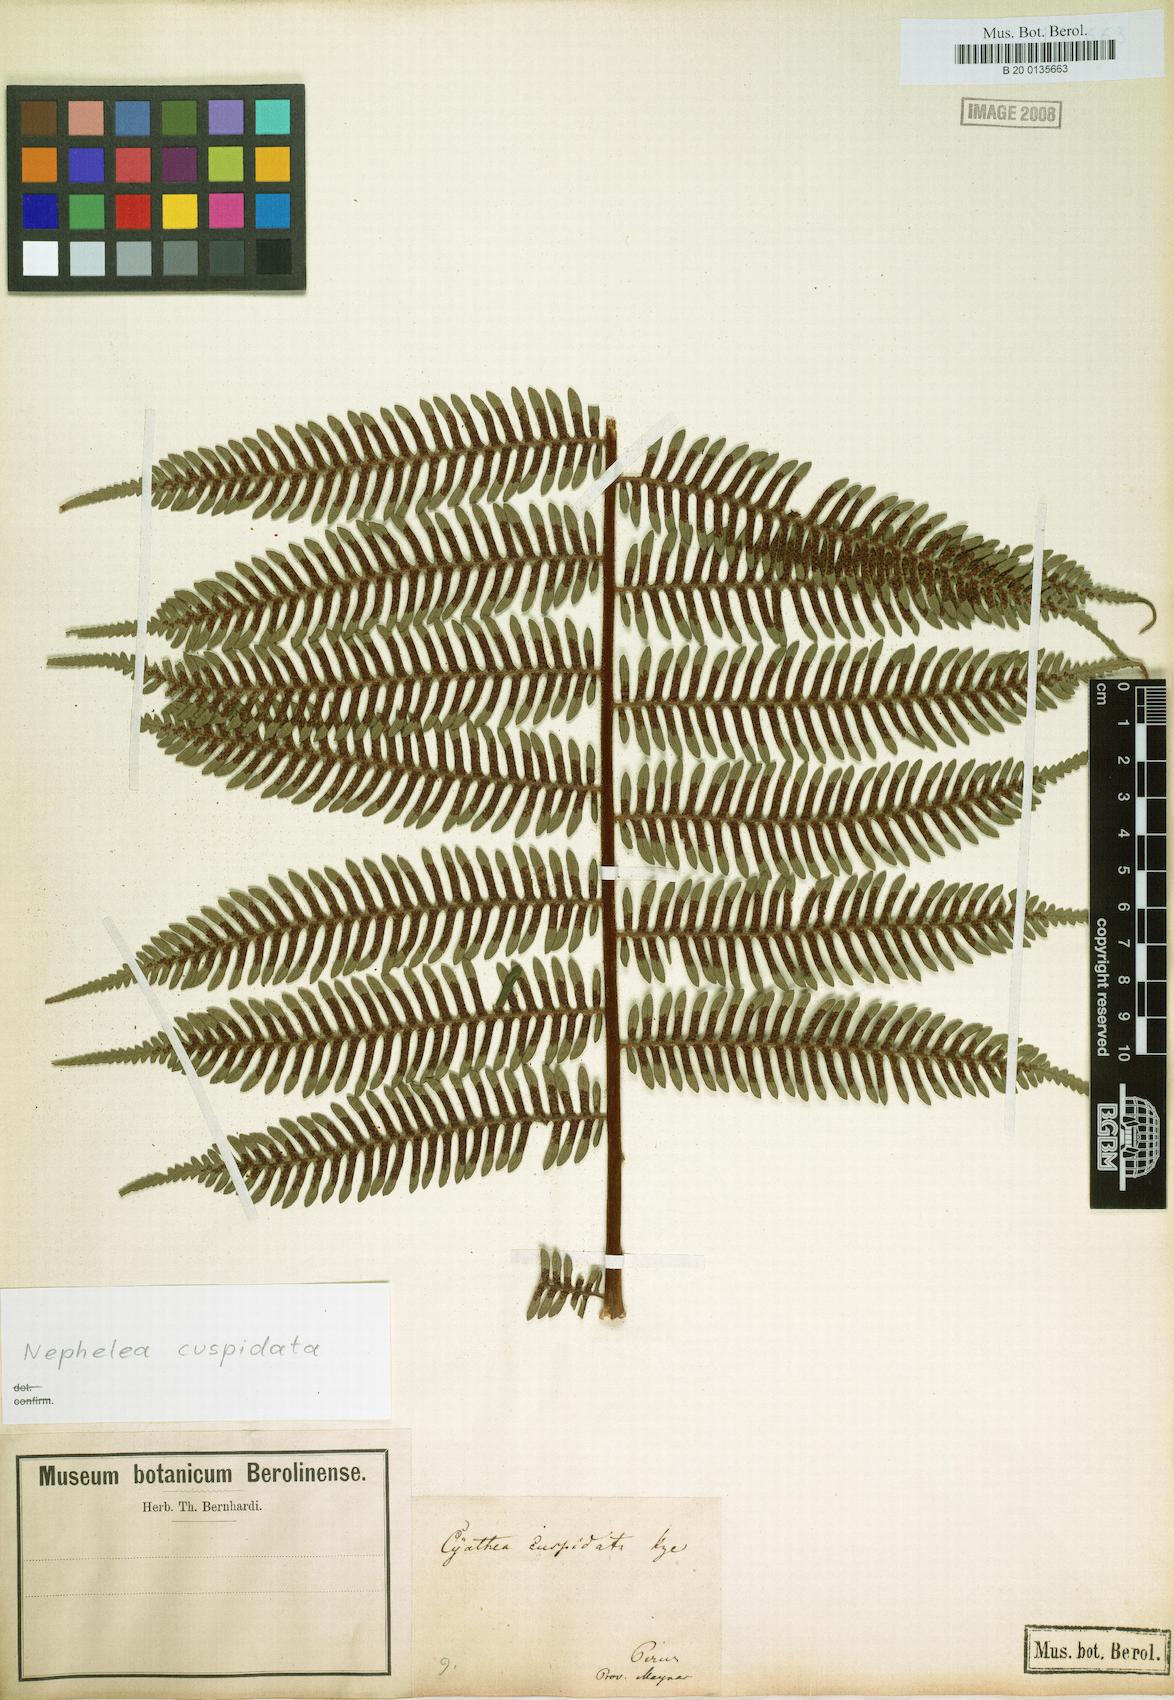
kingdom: Plantae
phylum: Tracheophyta
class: Polypodiopsida
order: Cyatheales
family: Cyatheaceae
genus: Alsophila
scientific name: Alsophila cuspidata
